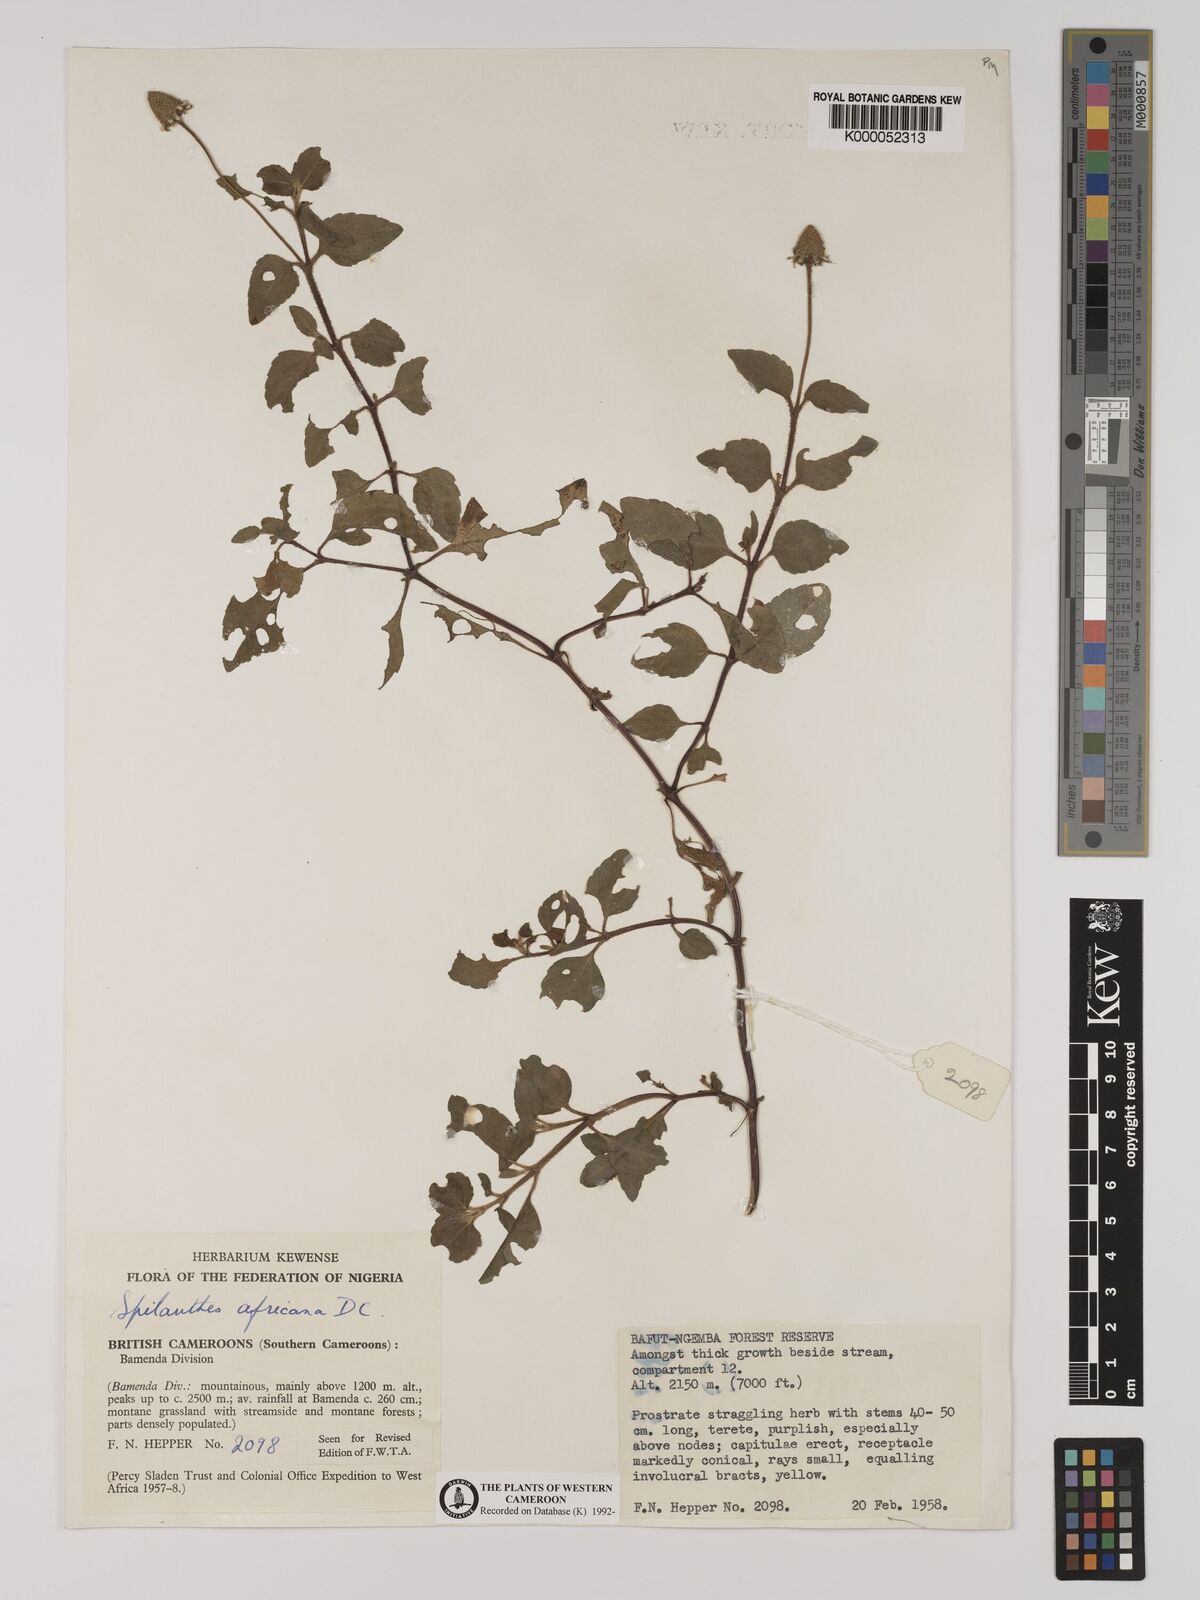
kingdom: Plantae
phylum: Tracheophyta
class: Magnoliopsida
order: Asterales
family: Asteraceae
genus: Acmella
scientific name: Acmella caulirhiza
